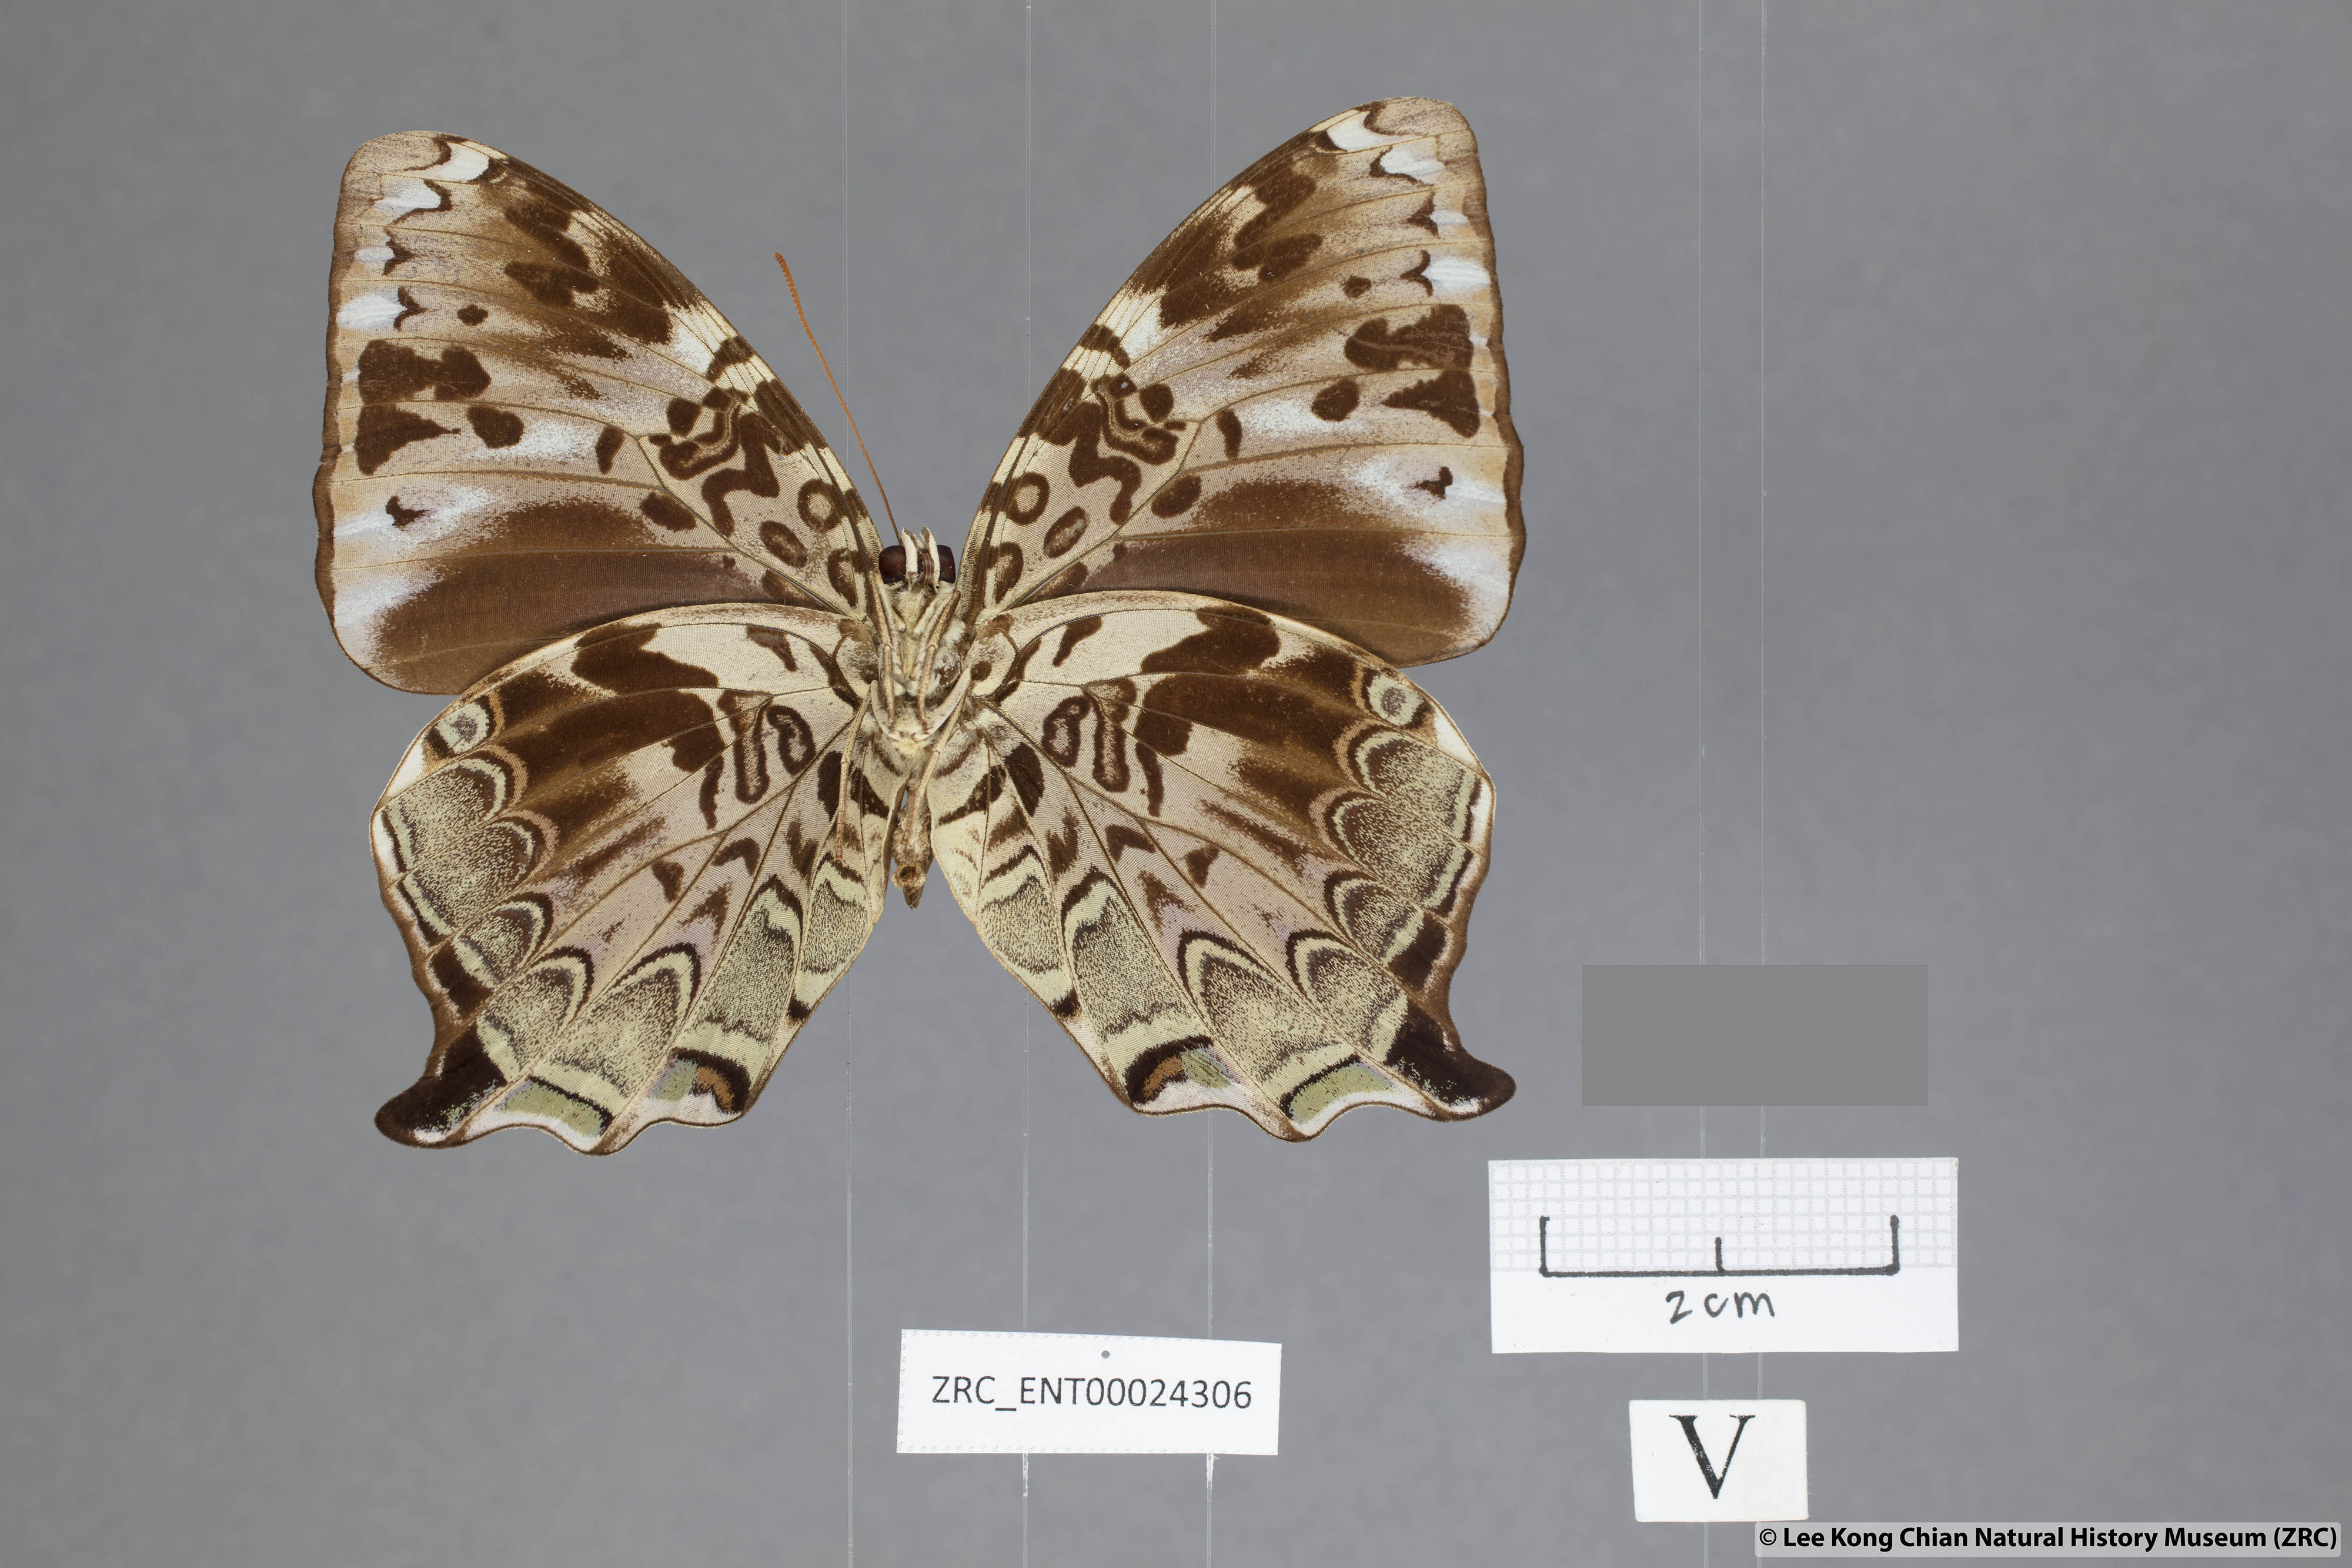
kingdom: Animalia
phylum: Arthropoda
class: Insecta
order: Lepidoptera
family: Nymphalidae
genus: Prothoe
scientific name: Prothoe
